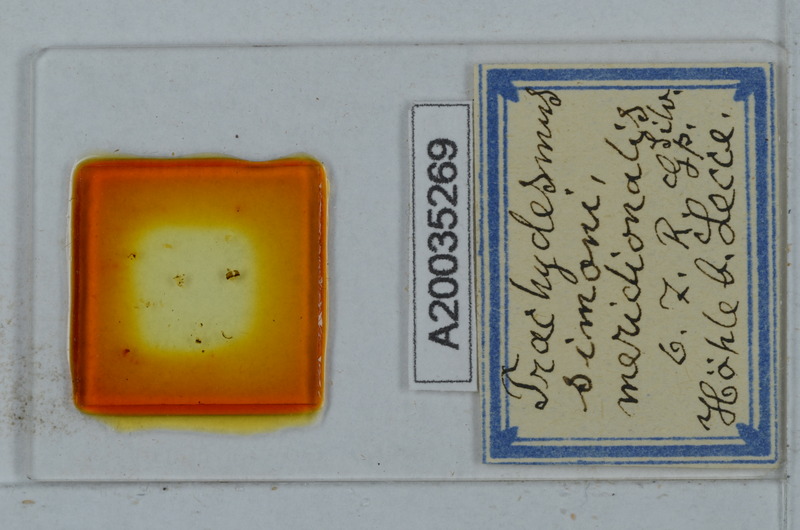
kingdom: Animalia
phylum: Arthropoda
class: Diplopoda
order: Polydesmida
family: Paradoxosomatidae
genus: Stosatea
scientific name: Stosatea granulata
